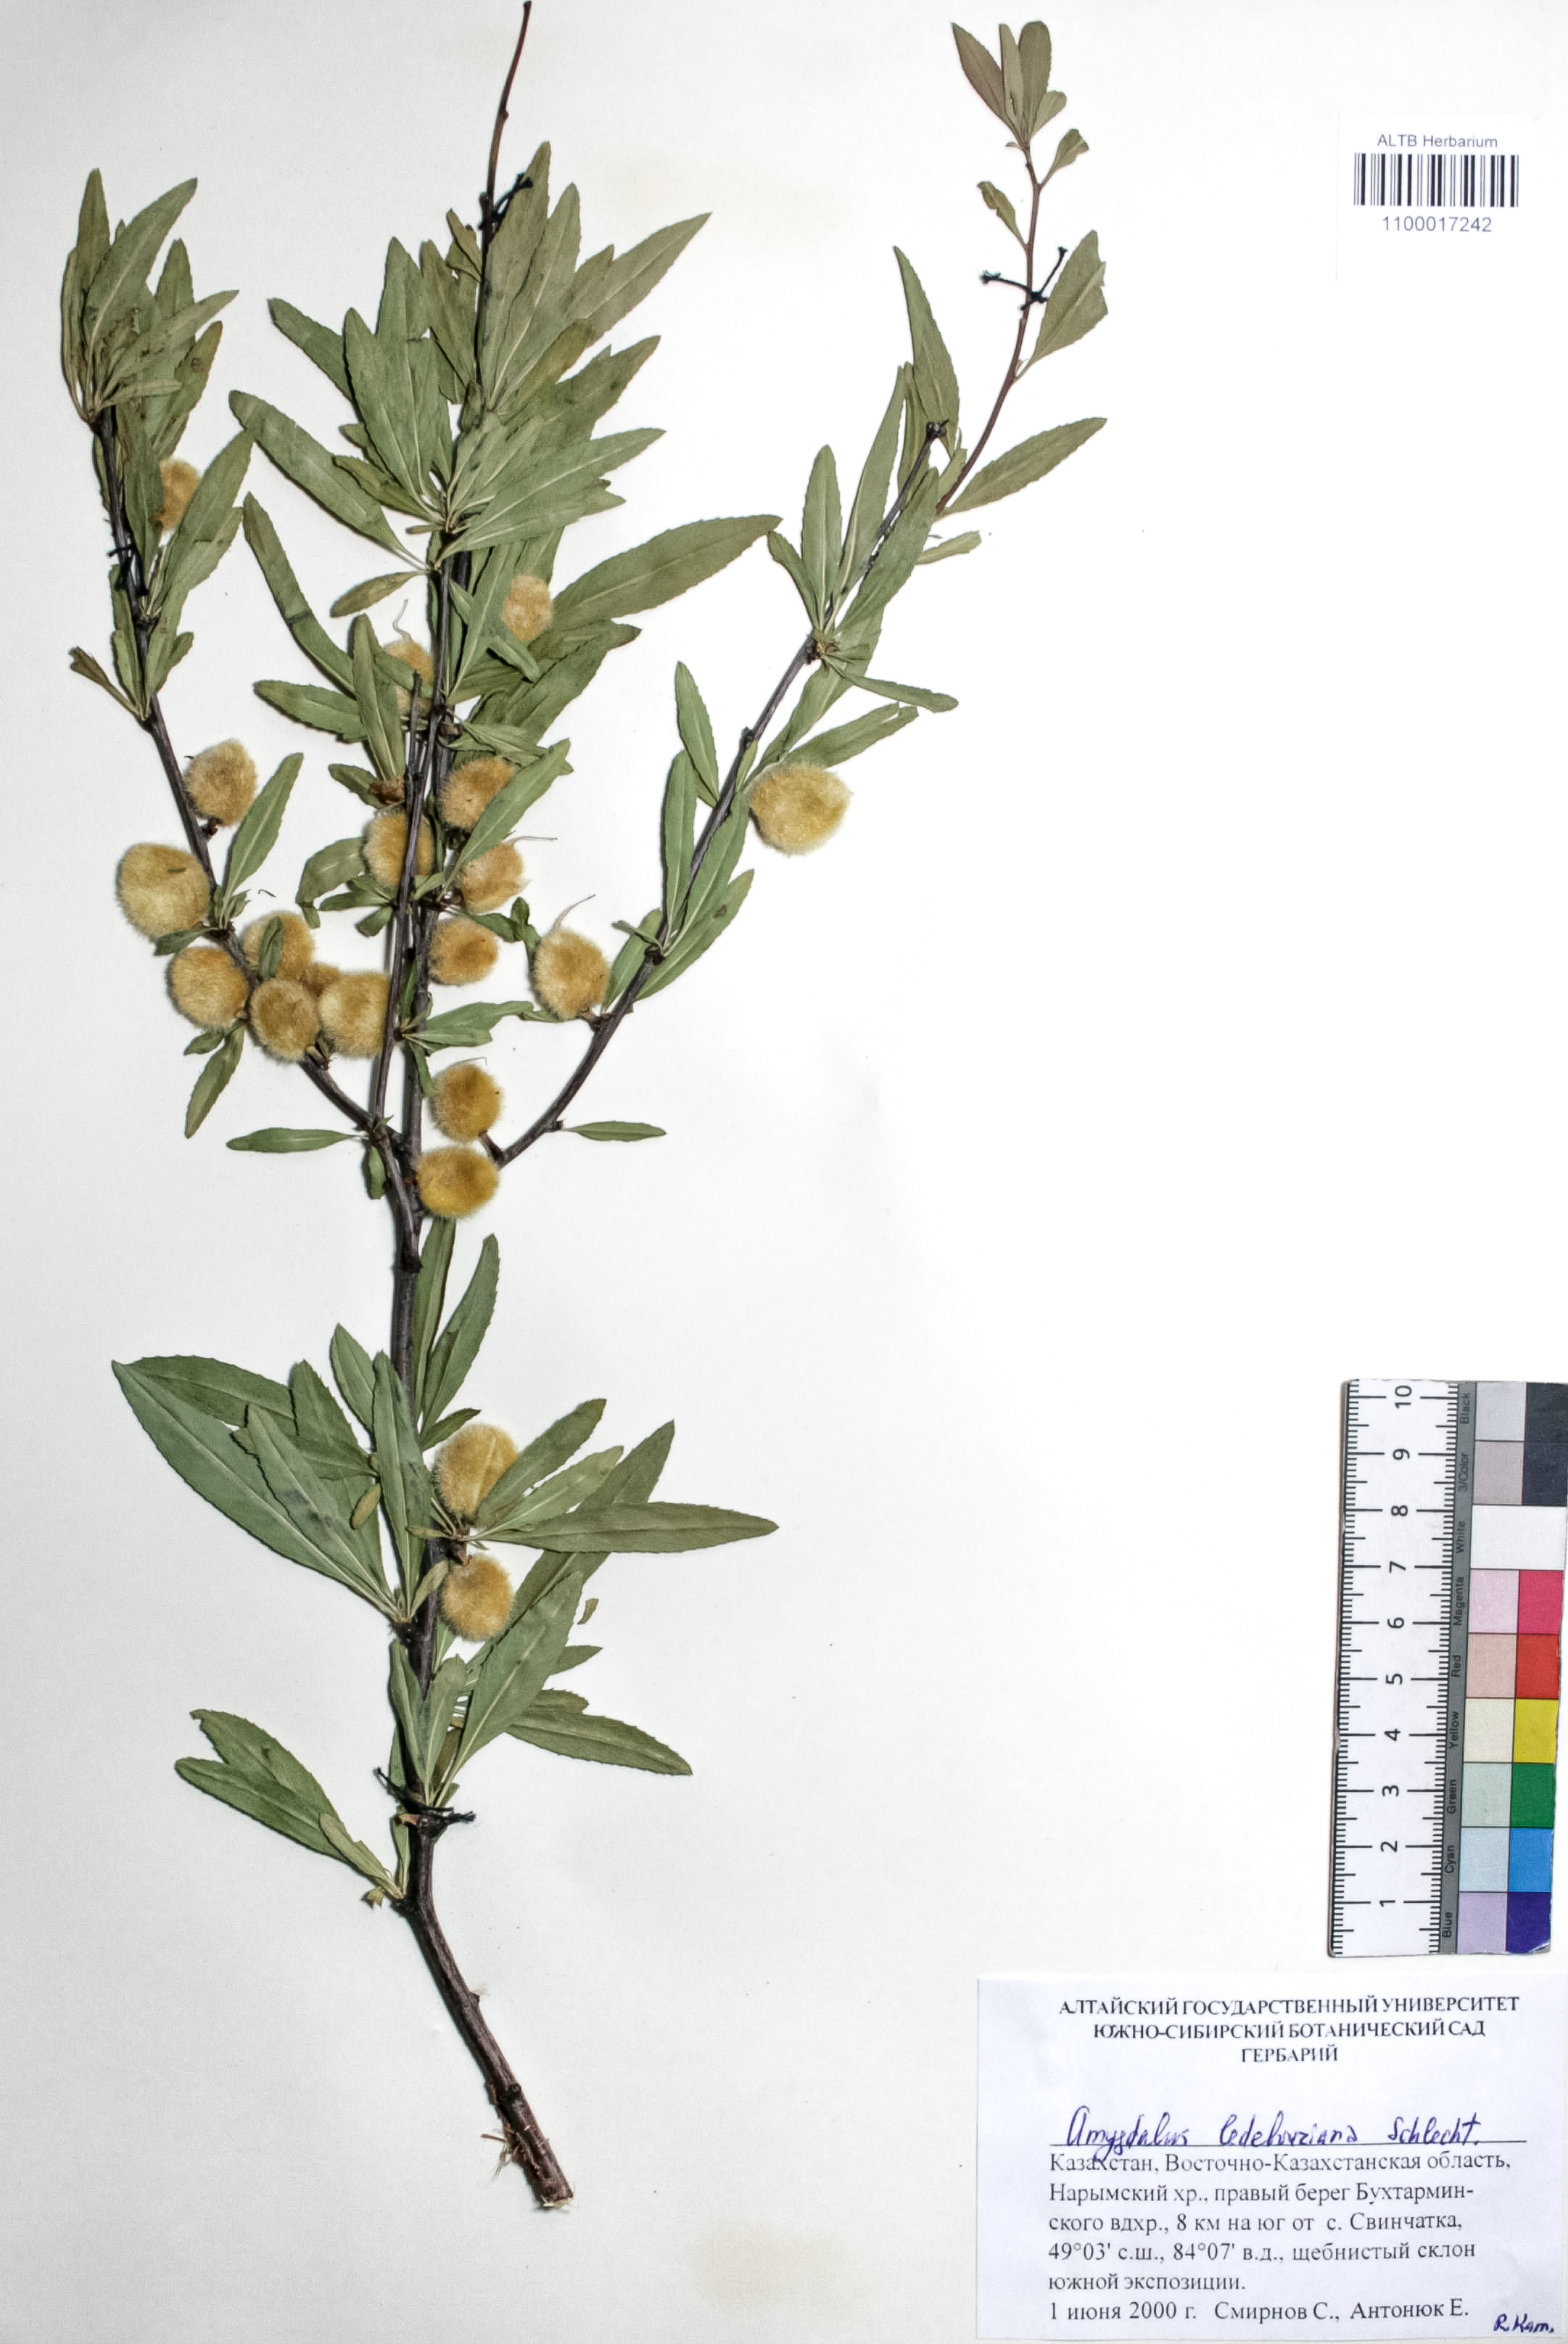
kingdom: Plantae
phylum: Tracheophyta
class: Magnoliopsida
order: Rosales
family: Rosaceae
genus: Prunus
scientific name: Prunus ledebouriana
